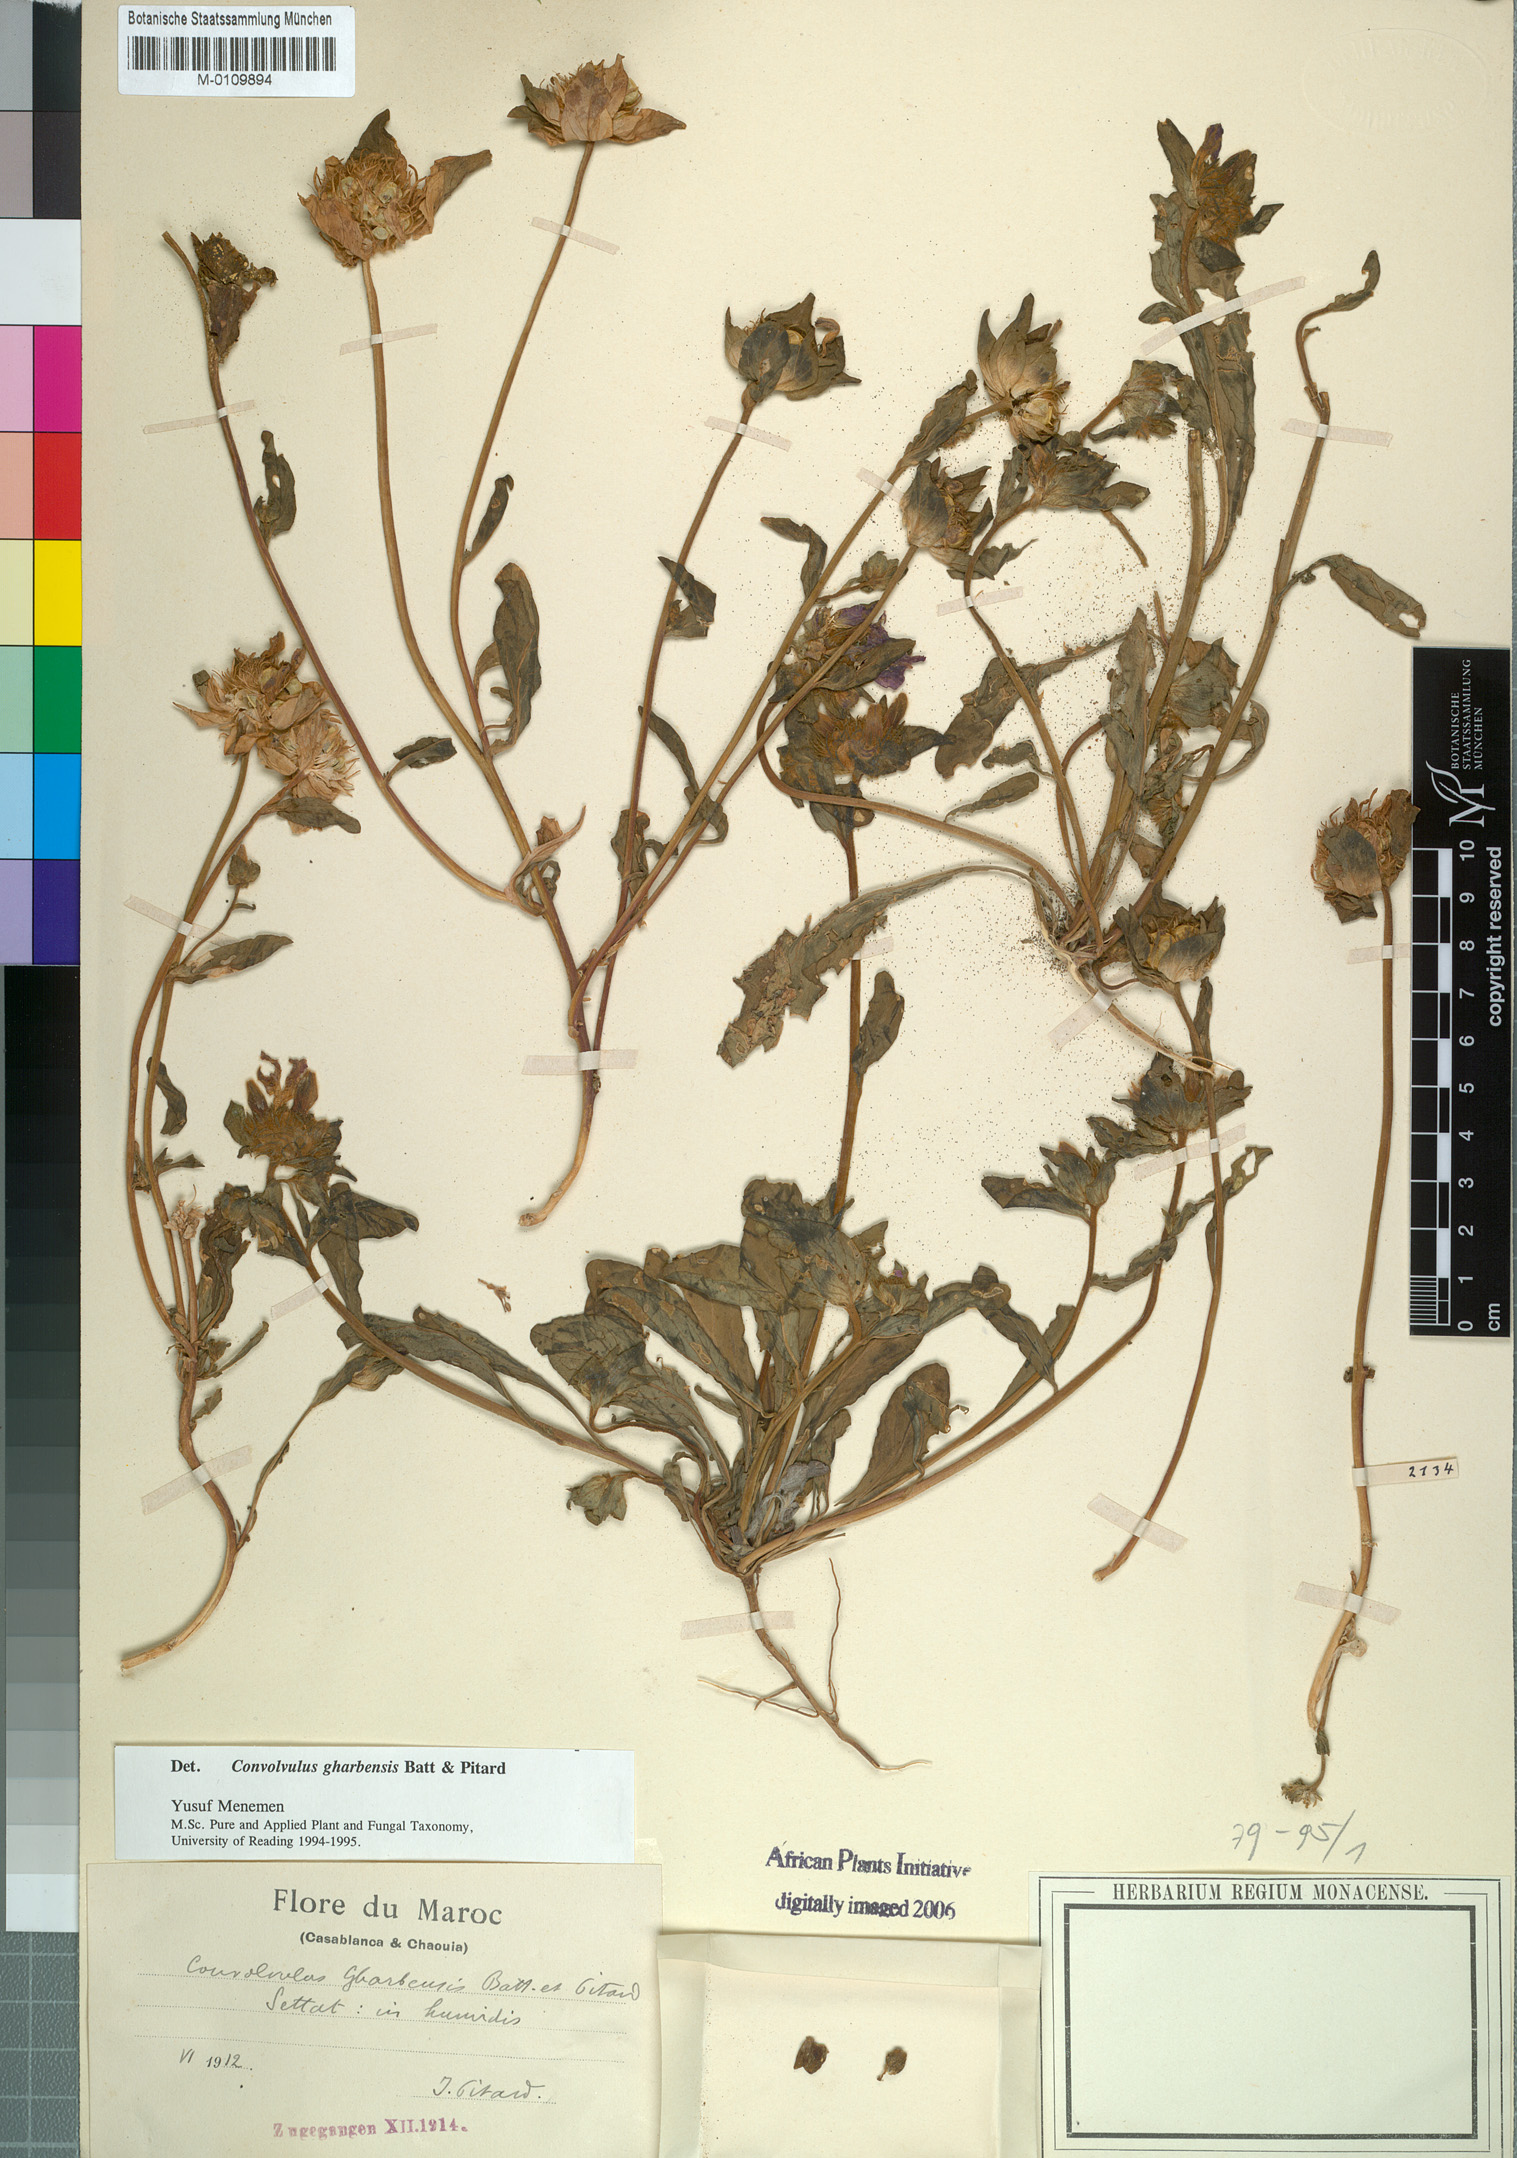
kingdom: Plantae
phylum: Tracheophyta
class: Magnoliopsida
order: Solanales
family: Convolvulaceae
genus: Convolvulus
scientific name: Convolvulus gharbensis
